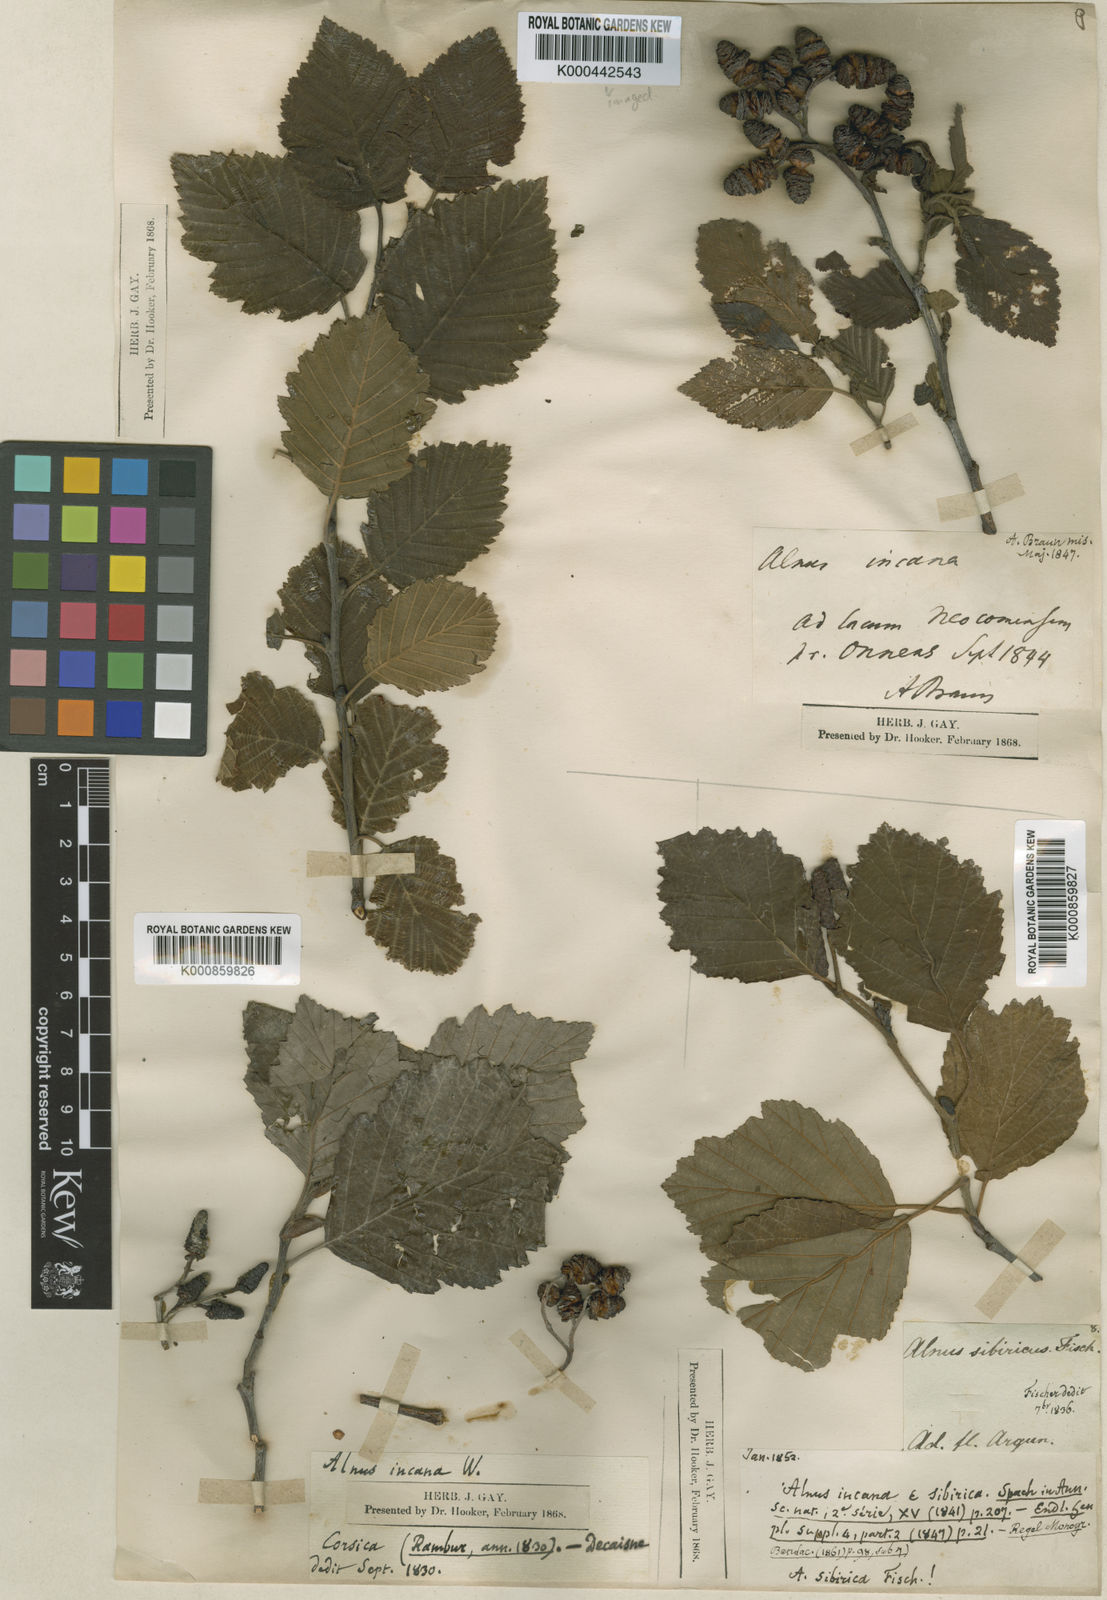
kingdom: Plantae
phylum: Tracheophyta
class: Magnoliopsida
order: Fagales
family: Betulaceae
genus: Alnus
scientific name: Alnus incana
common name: Grey alder
